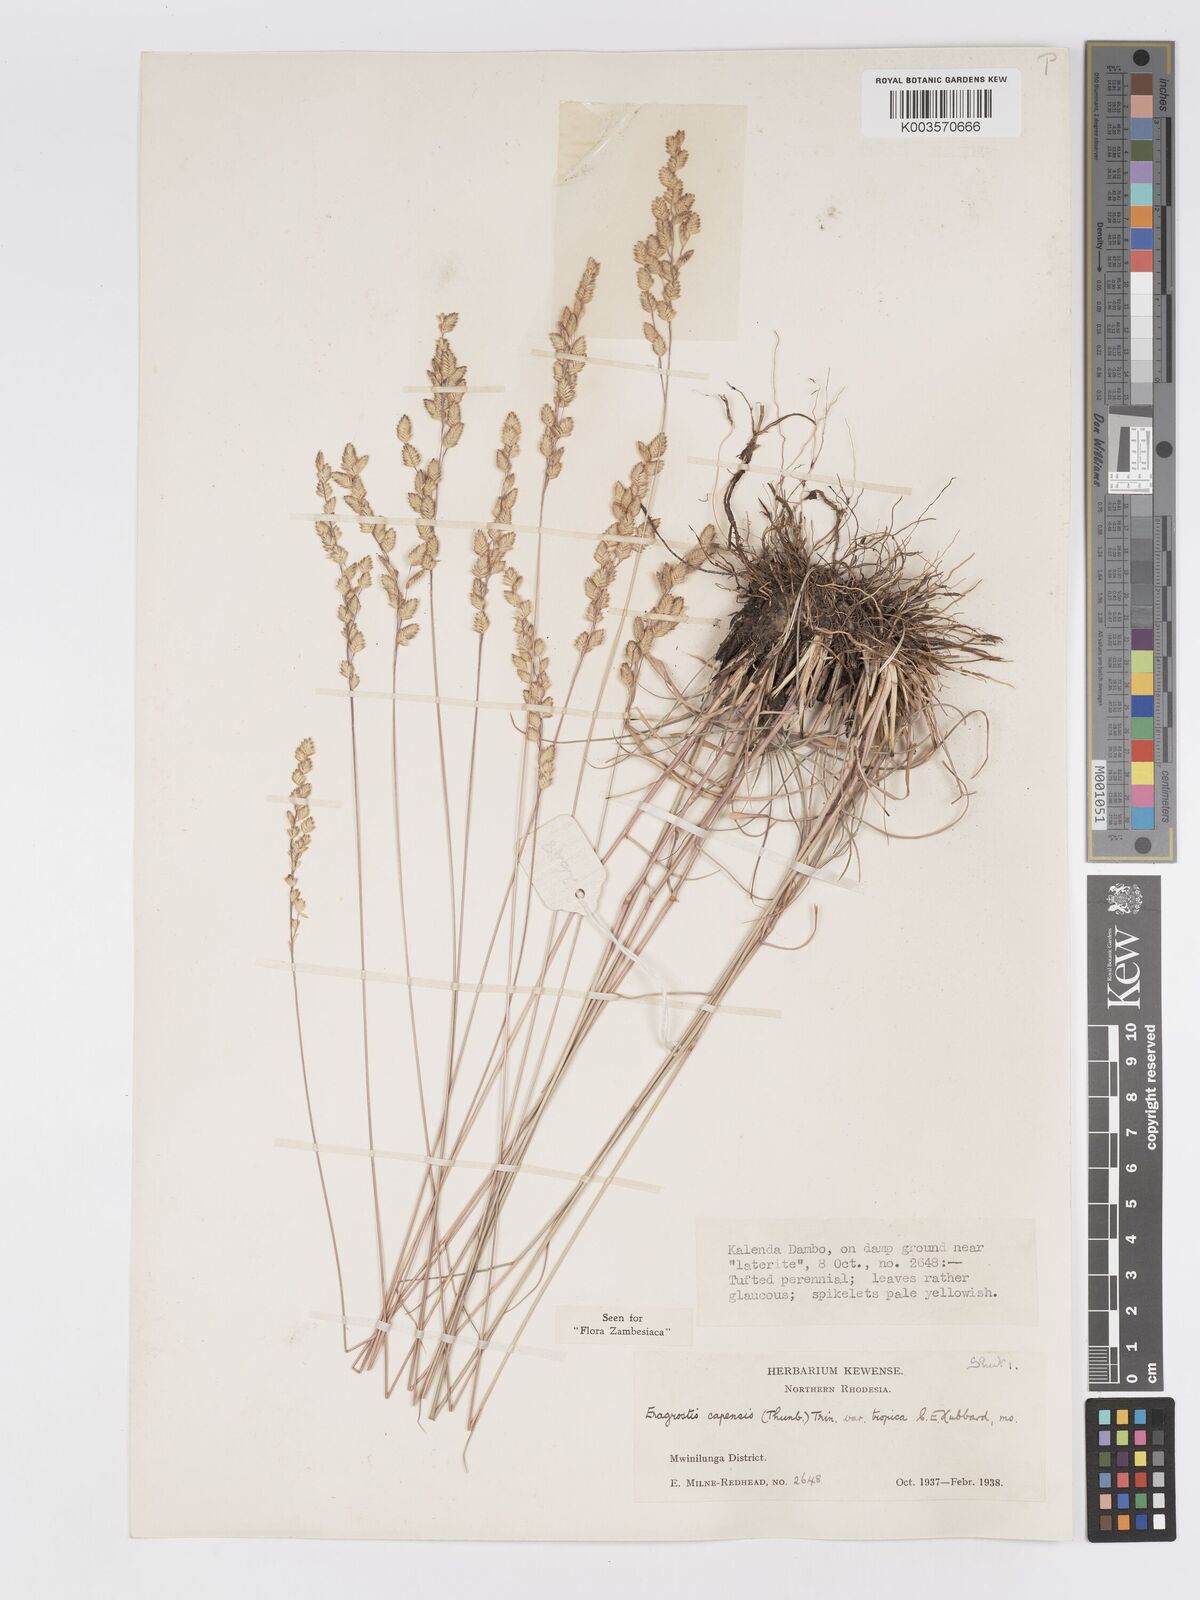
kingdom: Plantae
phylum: Tracheophyta
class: Liliopsida
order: Poales
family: Poaceae
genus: Eragrostis
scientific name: Eragrostis capensis
